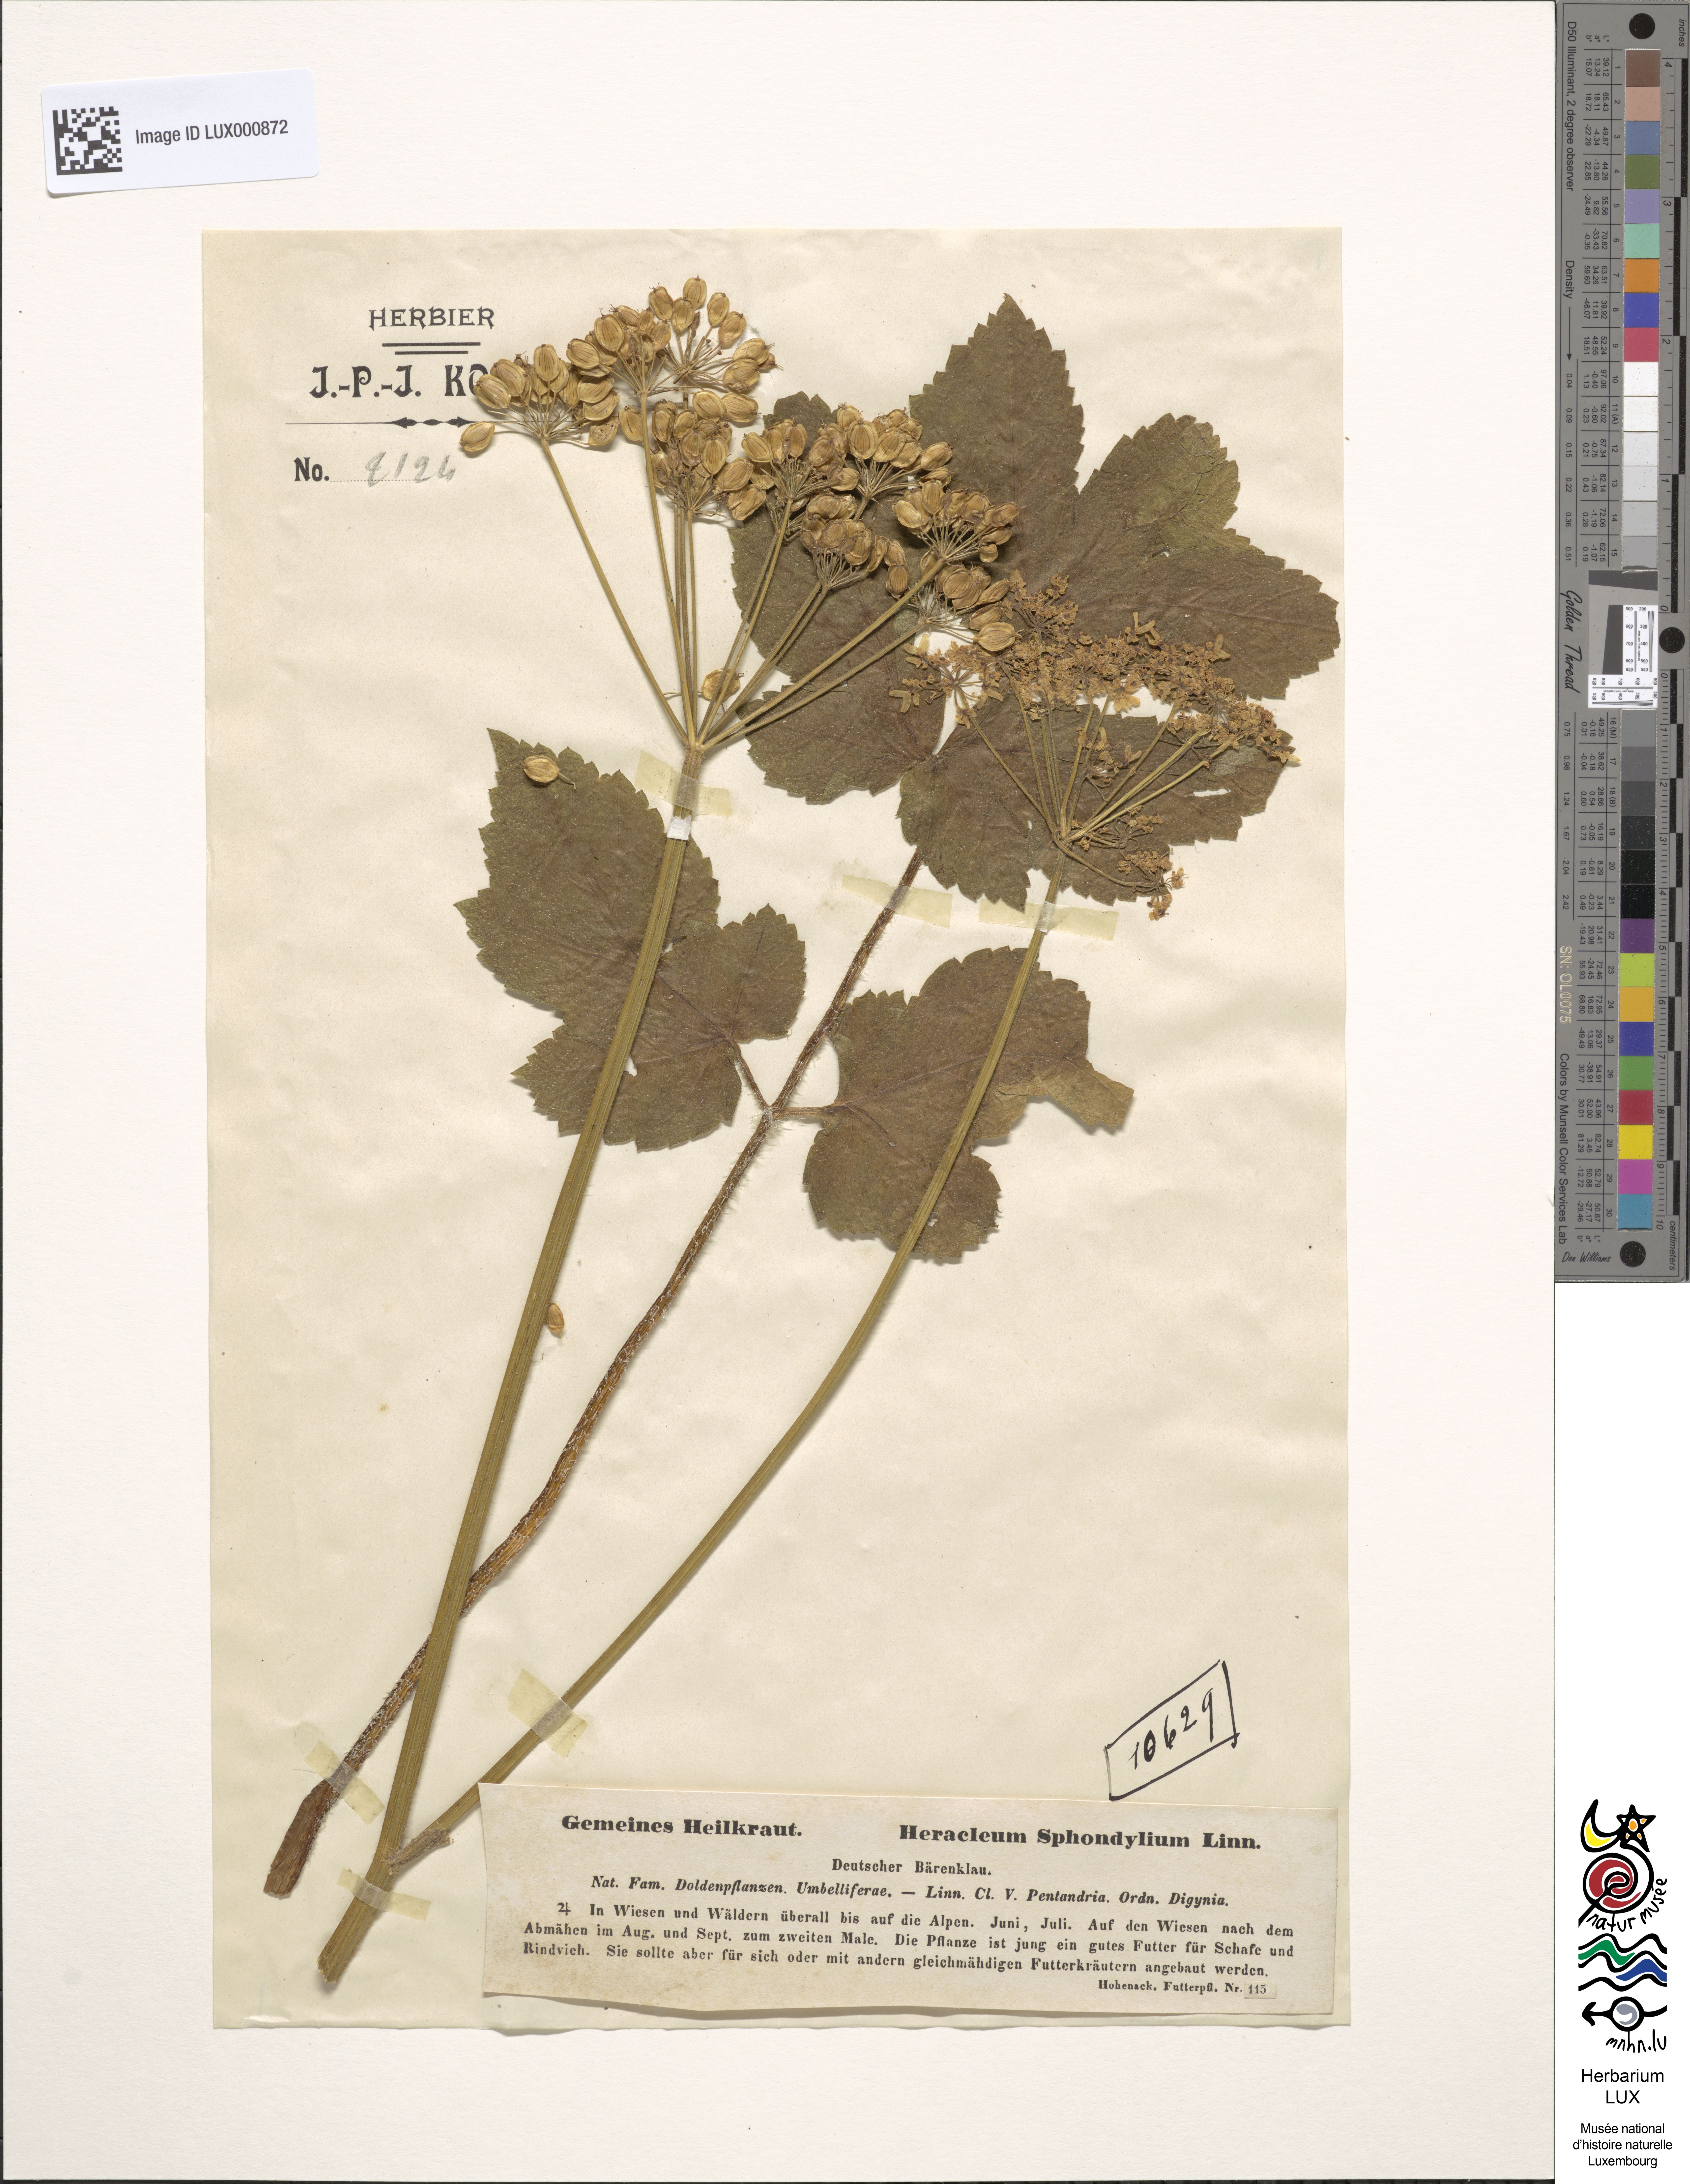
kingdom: Plantae
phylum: Tracheophyta
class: Magnoliopsida
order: Apiales
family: Apiaceae
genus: Heracleum
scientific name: Heracleum sphondylium
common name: Hogweed
